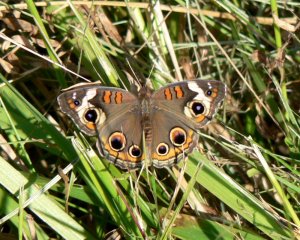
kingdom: Animalia
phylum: Arthropoda
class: Insecta
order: Lepidoptera
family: Nymphalidae
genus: Junonia
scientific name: Junonia coenia
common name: Common Buckeye
